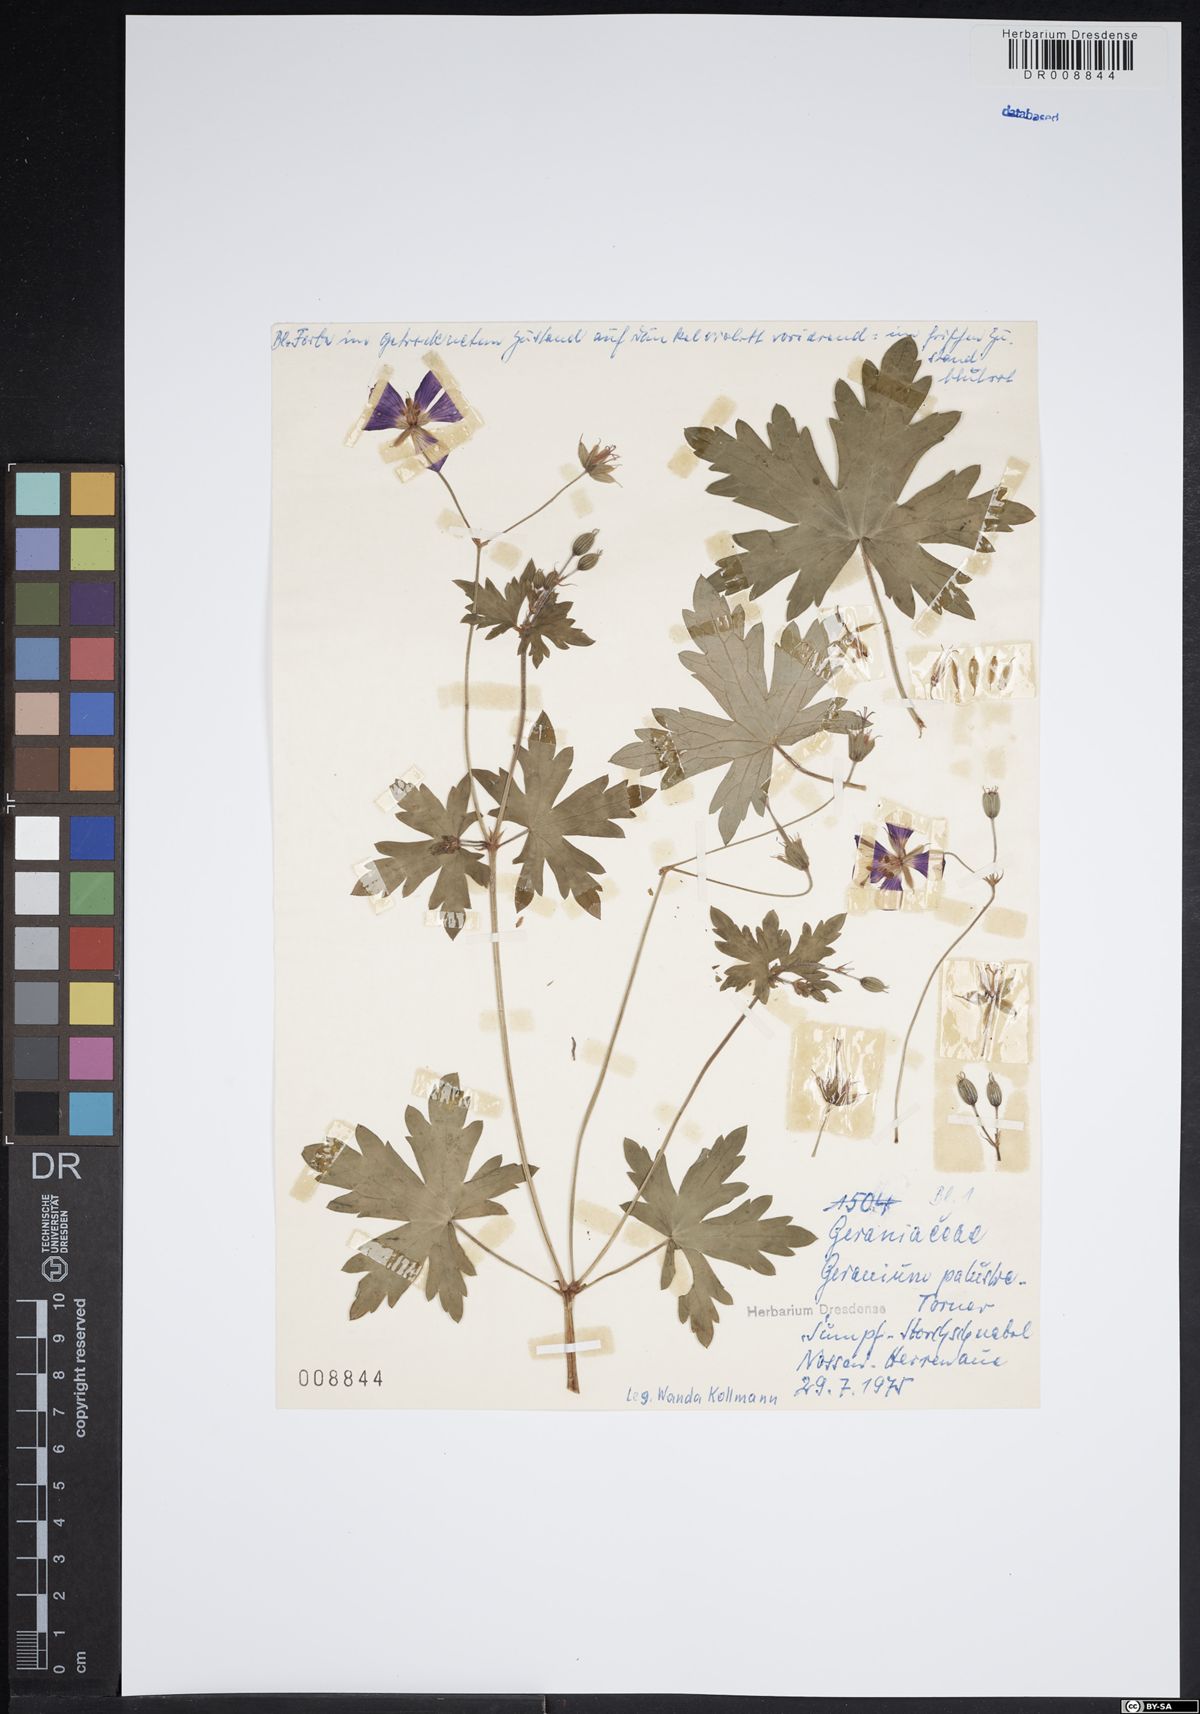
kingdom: Plantae
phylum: Tracheophyta
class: Magnoliopsida
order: Geraniales
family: Geraniaceae
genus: Geranium
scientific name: Geranium palustre
